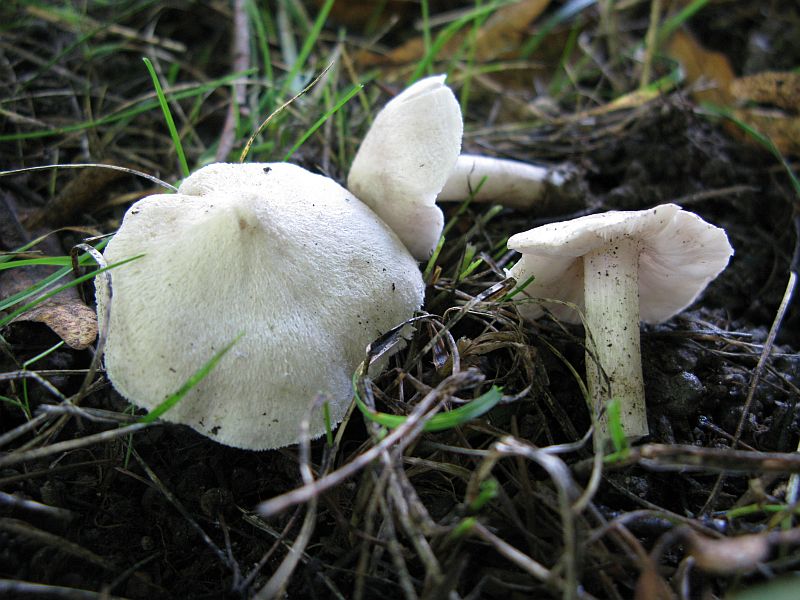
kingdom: Fungi
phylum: Basidiomycota
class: Agaricomycetes
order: Agaricales
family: Tricholomataceae
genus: Tricholoma
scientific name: Tricholoma argyraceum
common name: spids ridderhat
